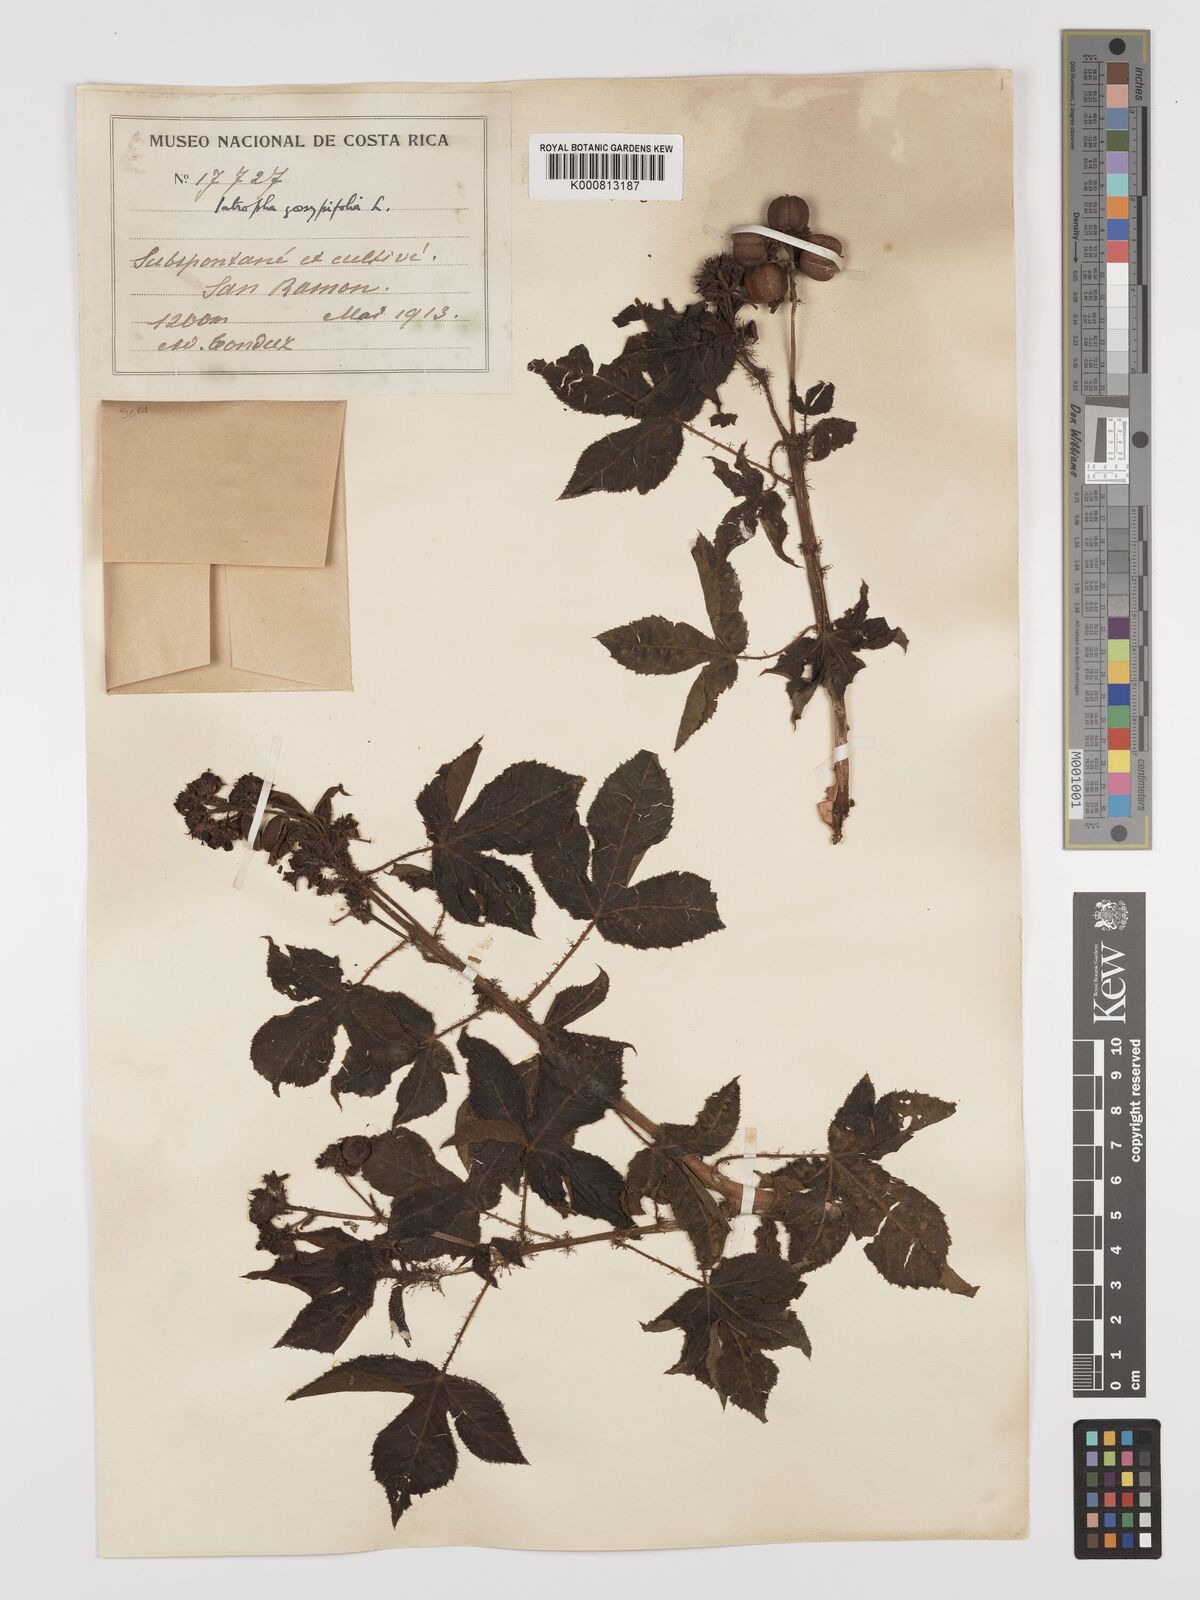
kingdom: Plantae
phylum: Tracheophyta
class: Magnoliopsida
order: Malpighiales
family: Euphorbiaceae
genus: Jatropha
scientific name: Jatropha gossypiifolia
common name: Bellyache bush
